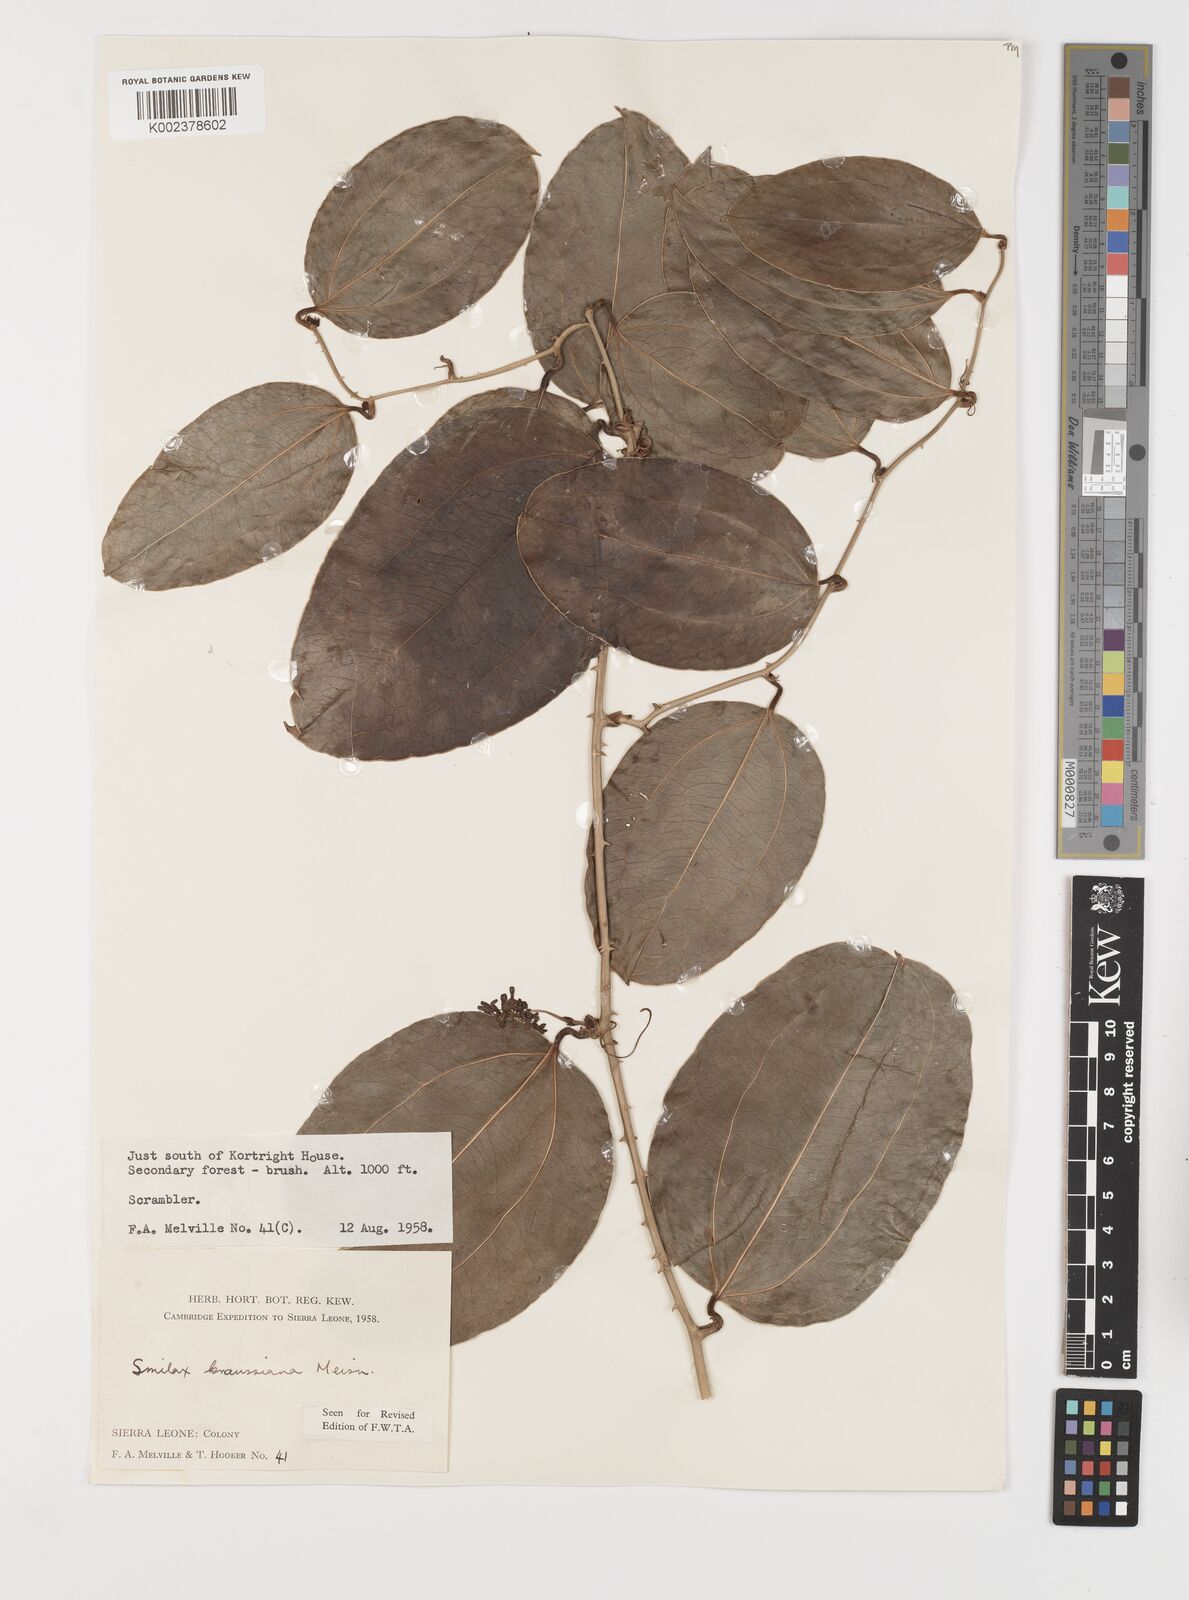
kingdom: Plantae
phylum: Tracheophyta
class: Liliopsida
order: Liliales
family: Smilacaceae
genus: Smilax
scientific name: Smilax anceps
